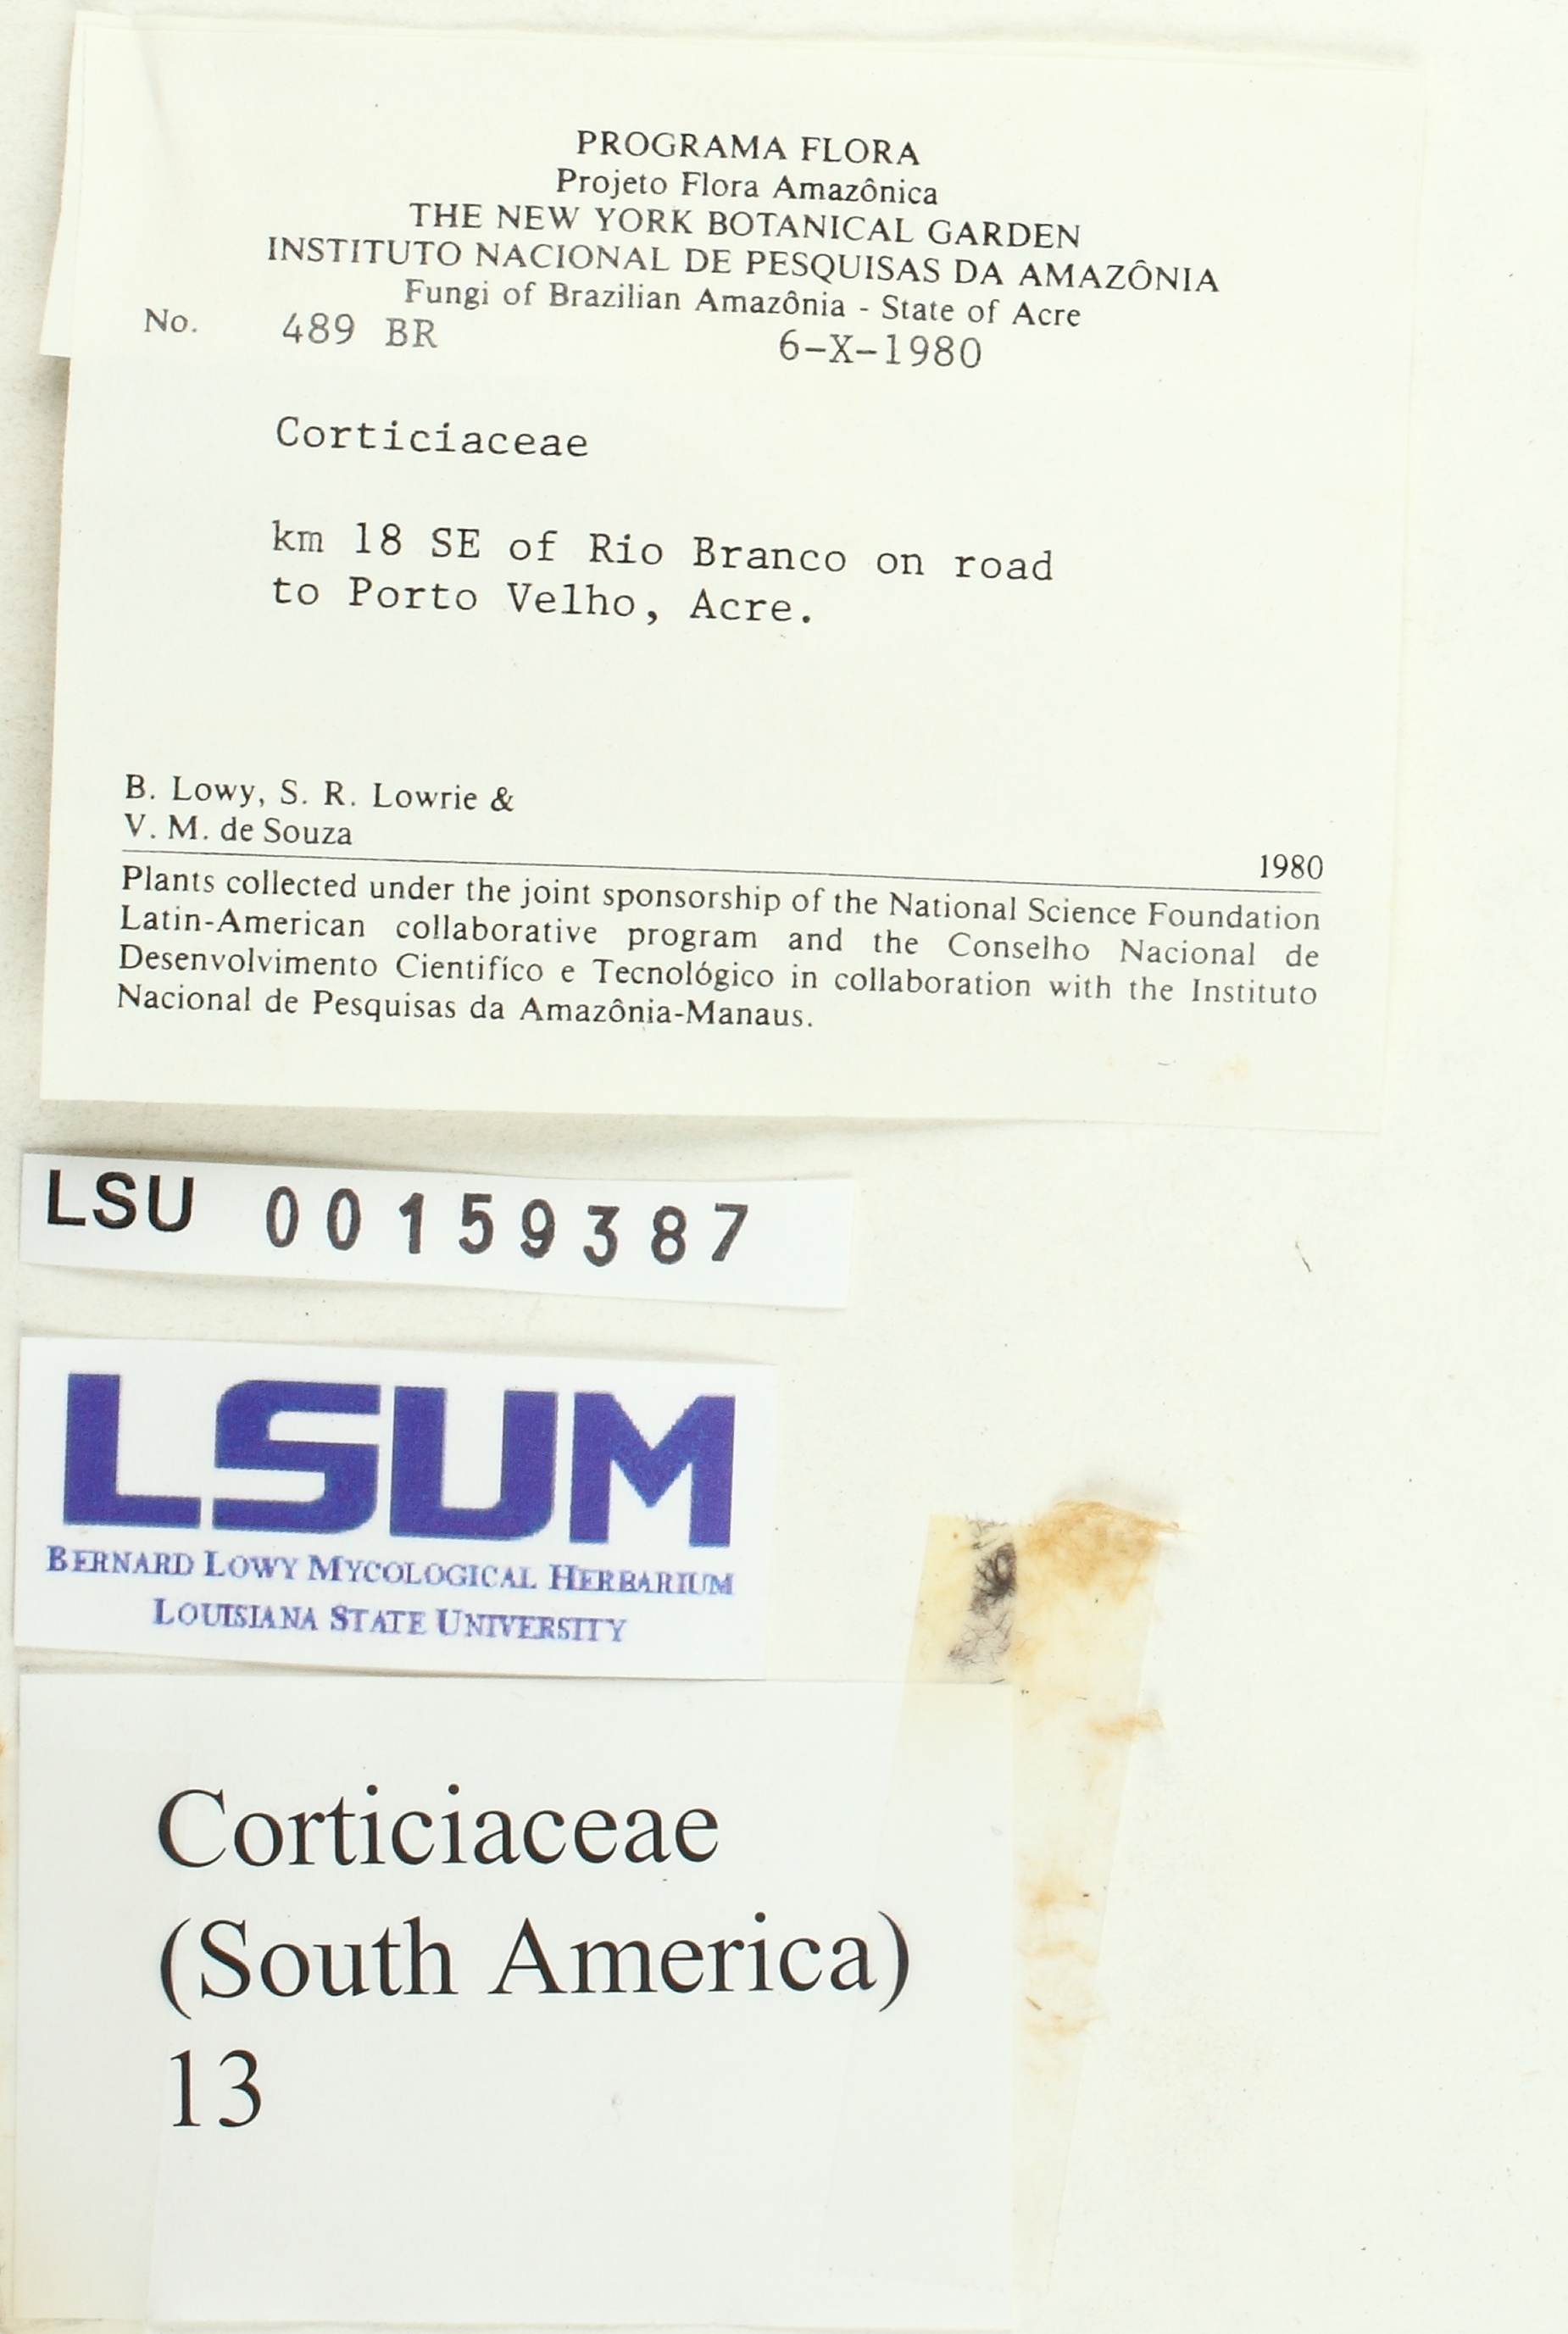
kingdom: Fungi
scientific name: Fungi
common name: Fungi
